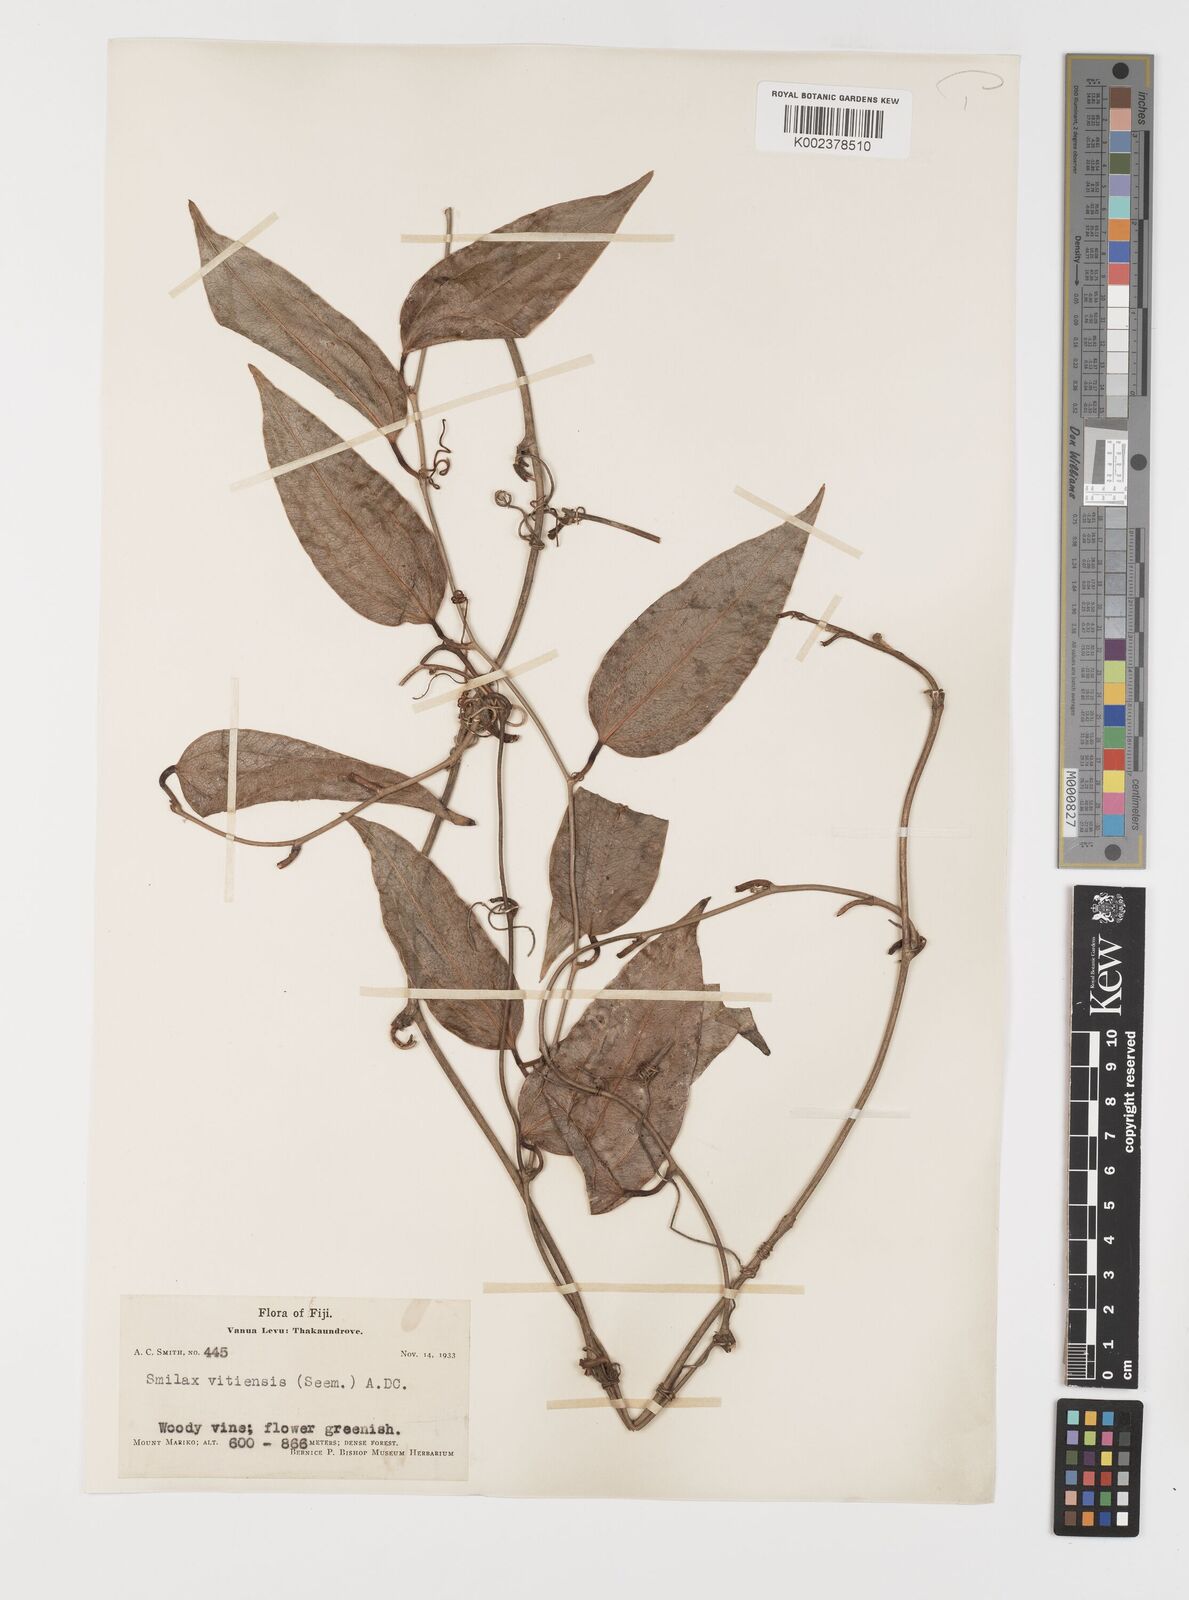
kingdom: Plantae
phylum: Tracheophyta
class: Liliopsida
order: Liliales
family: Smilacaceae
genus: Smilax
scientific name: Smilax vitiensis
